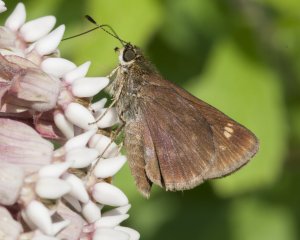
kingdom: Animalia
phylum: Arthropoda
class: Insecta
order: Lepidoptera
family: Hesperiidae
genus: Vernia
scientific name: Vernia verna
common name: Little Glassywing
